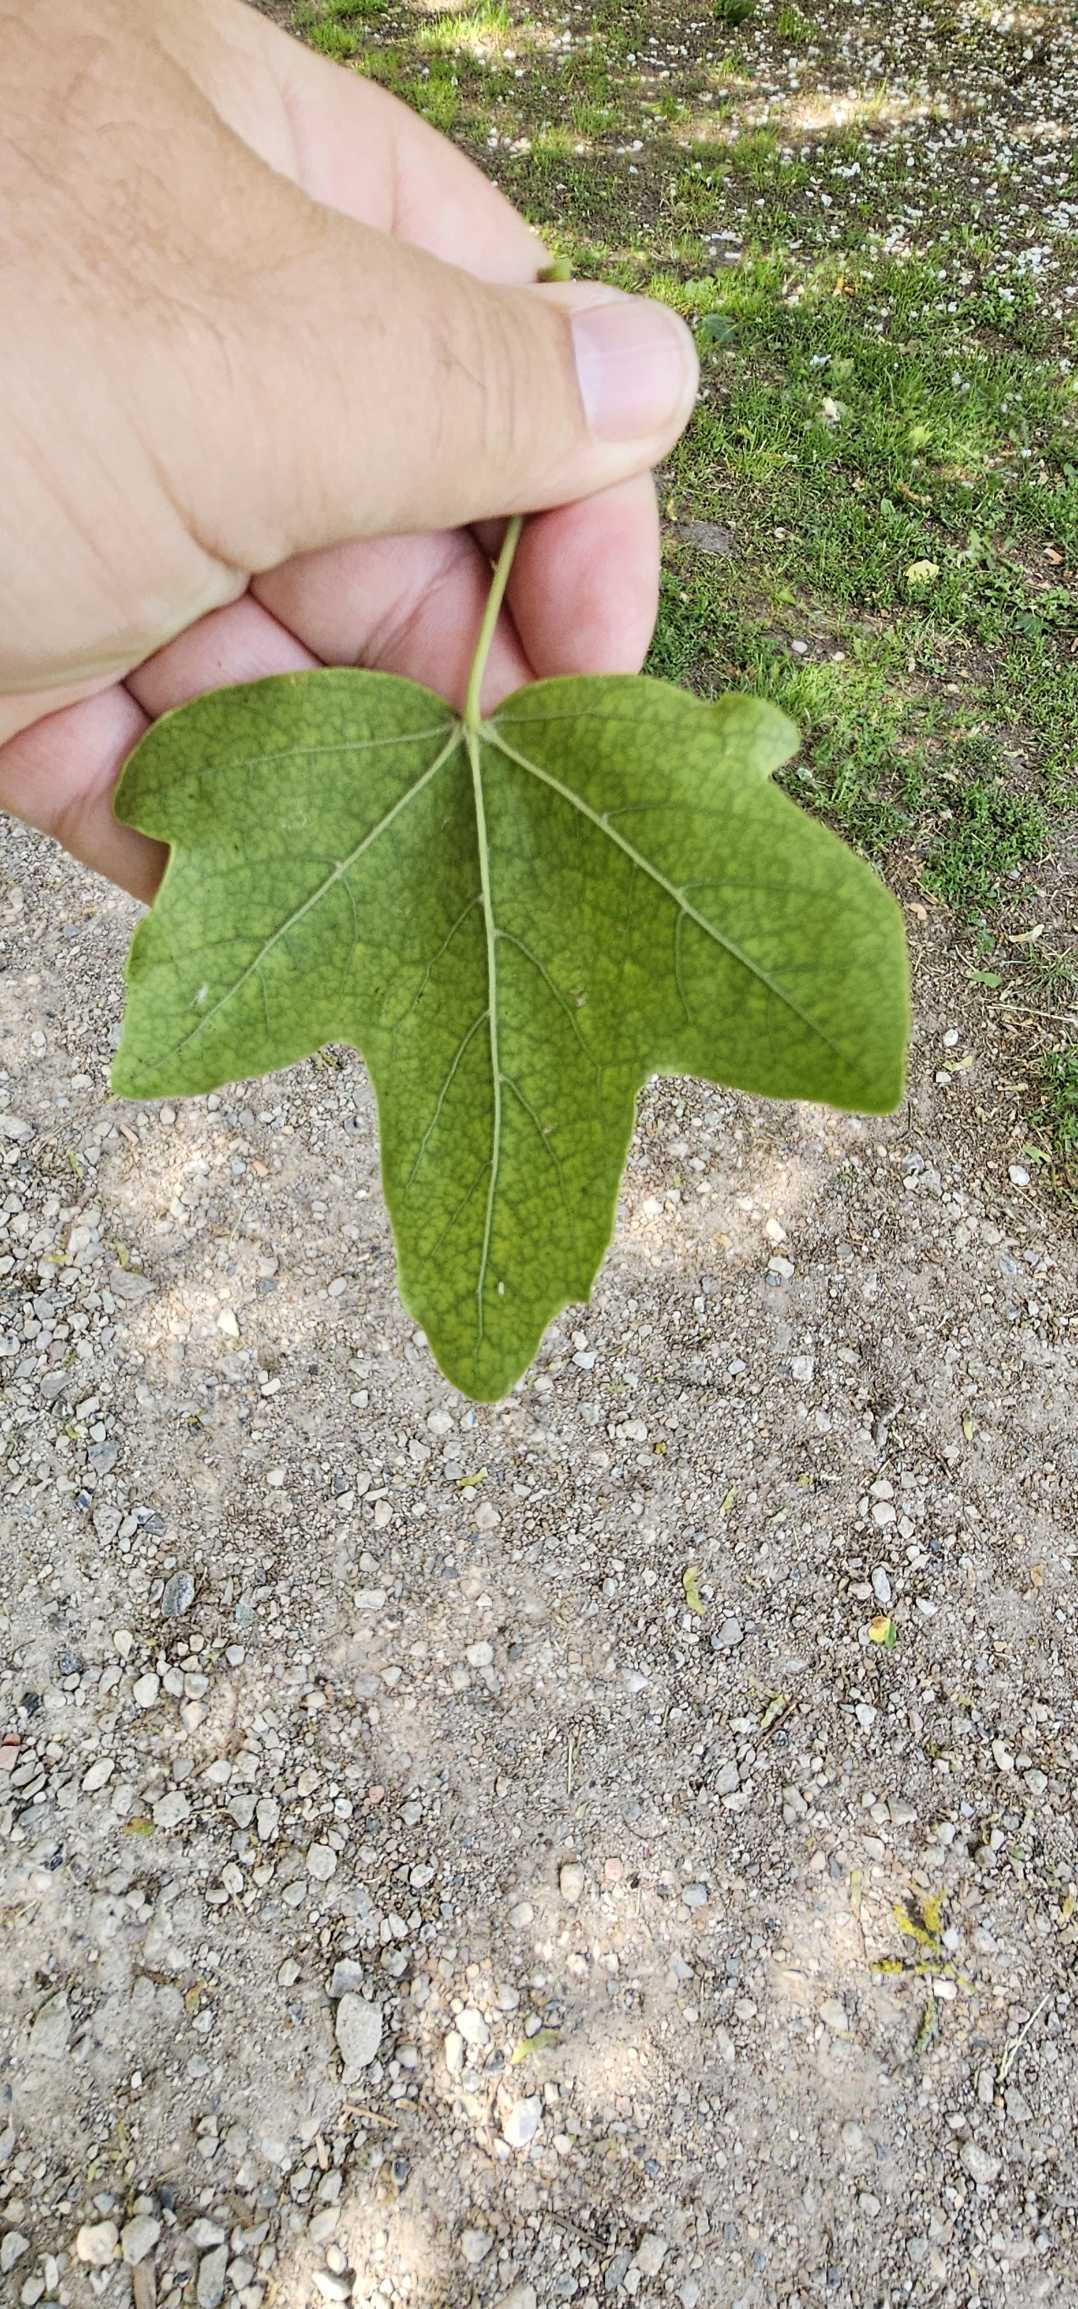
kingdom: Plantae
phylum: Tracheophyta
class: Magnoliopsida
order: Sapindales
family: Sapindaceae
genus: Acer
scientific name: Acer campestre
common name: Navr
